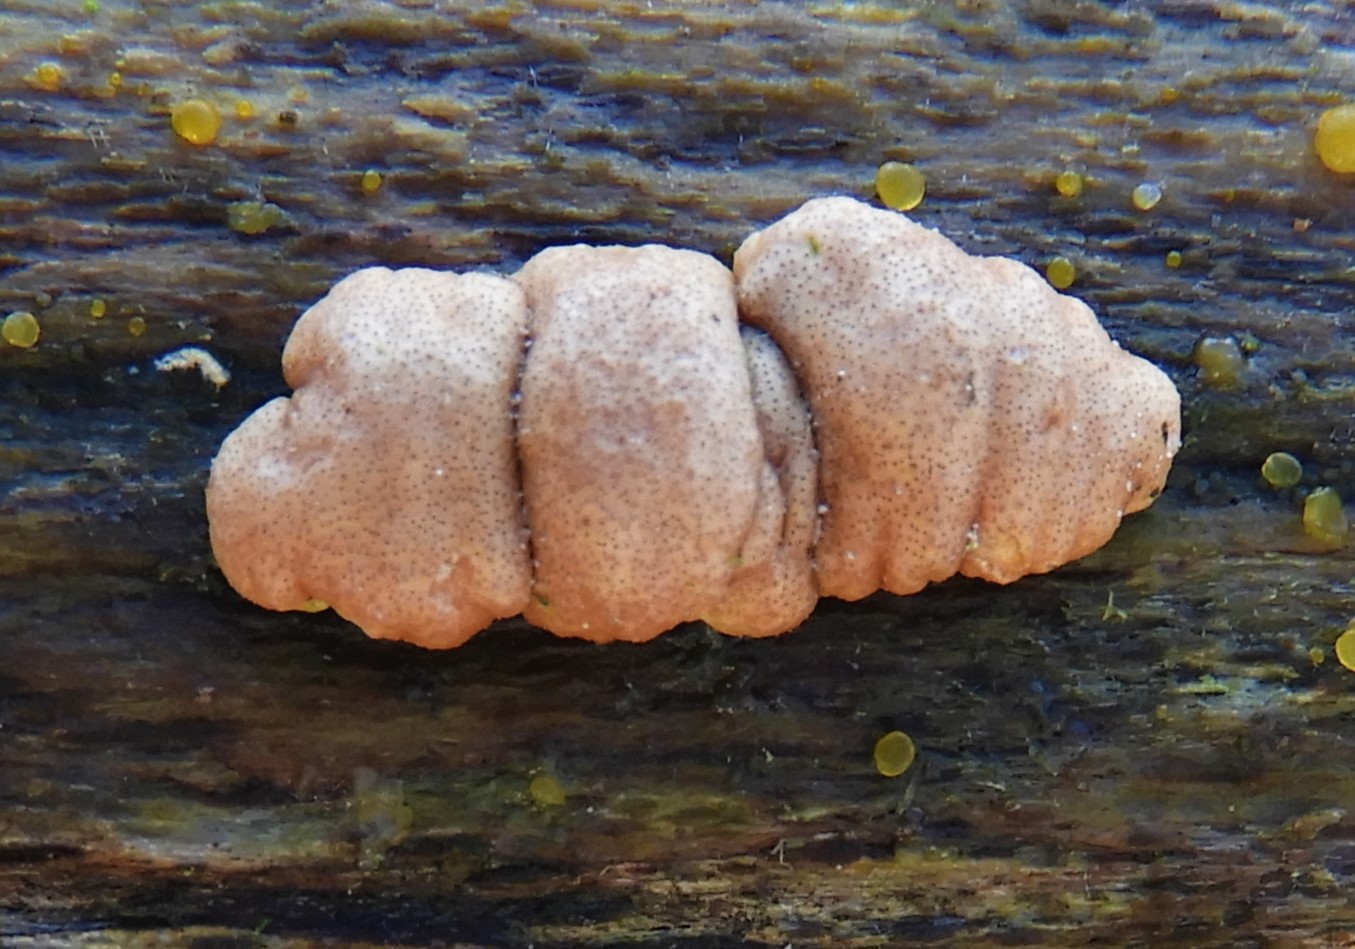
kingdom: Fungi
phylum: Ascomycota
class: Sordariomycetes
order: Hypocreales
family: Hypocreaceae
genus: Trichoderma
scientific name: Trichoderma europaeum
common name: rosabrun kødkerne
